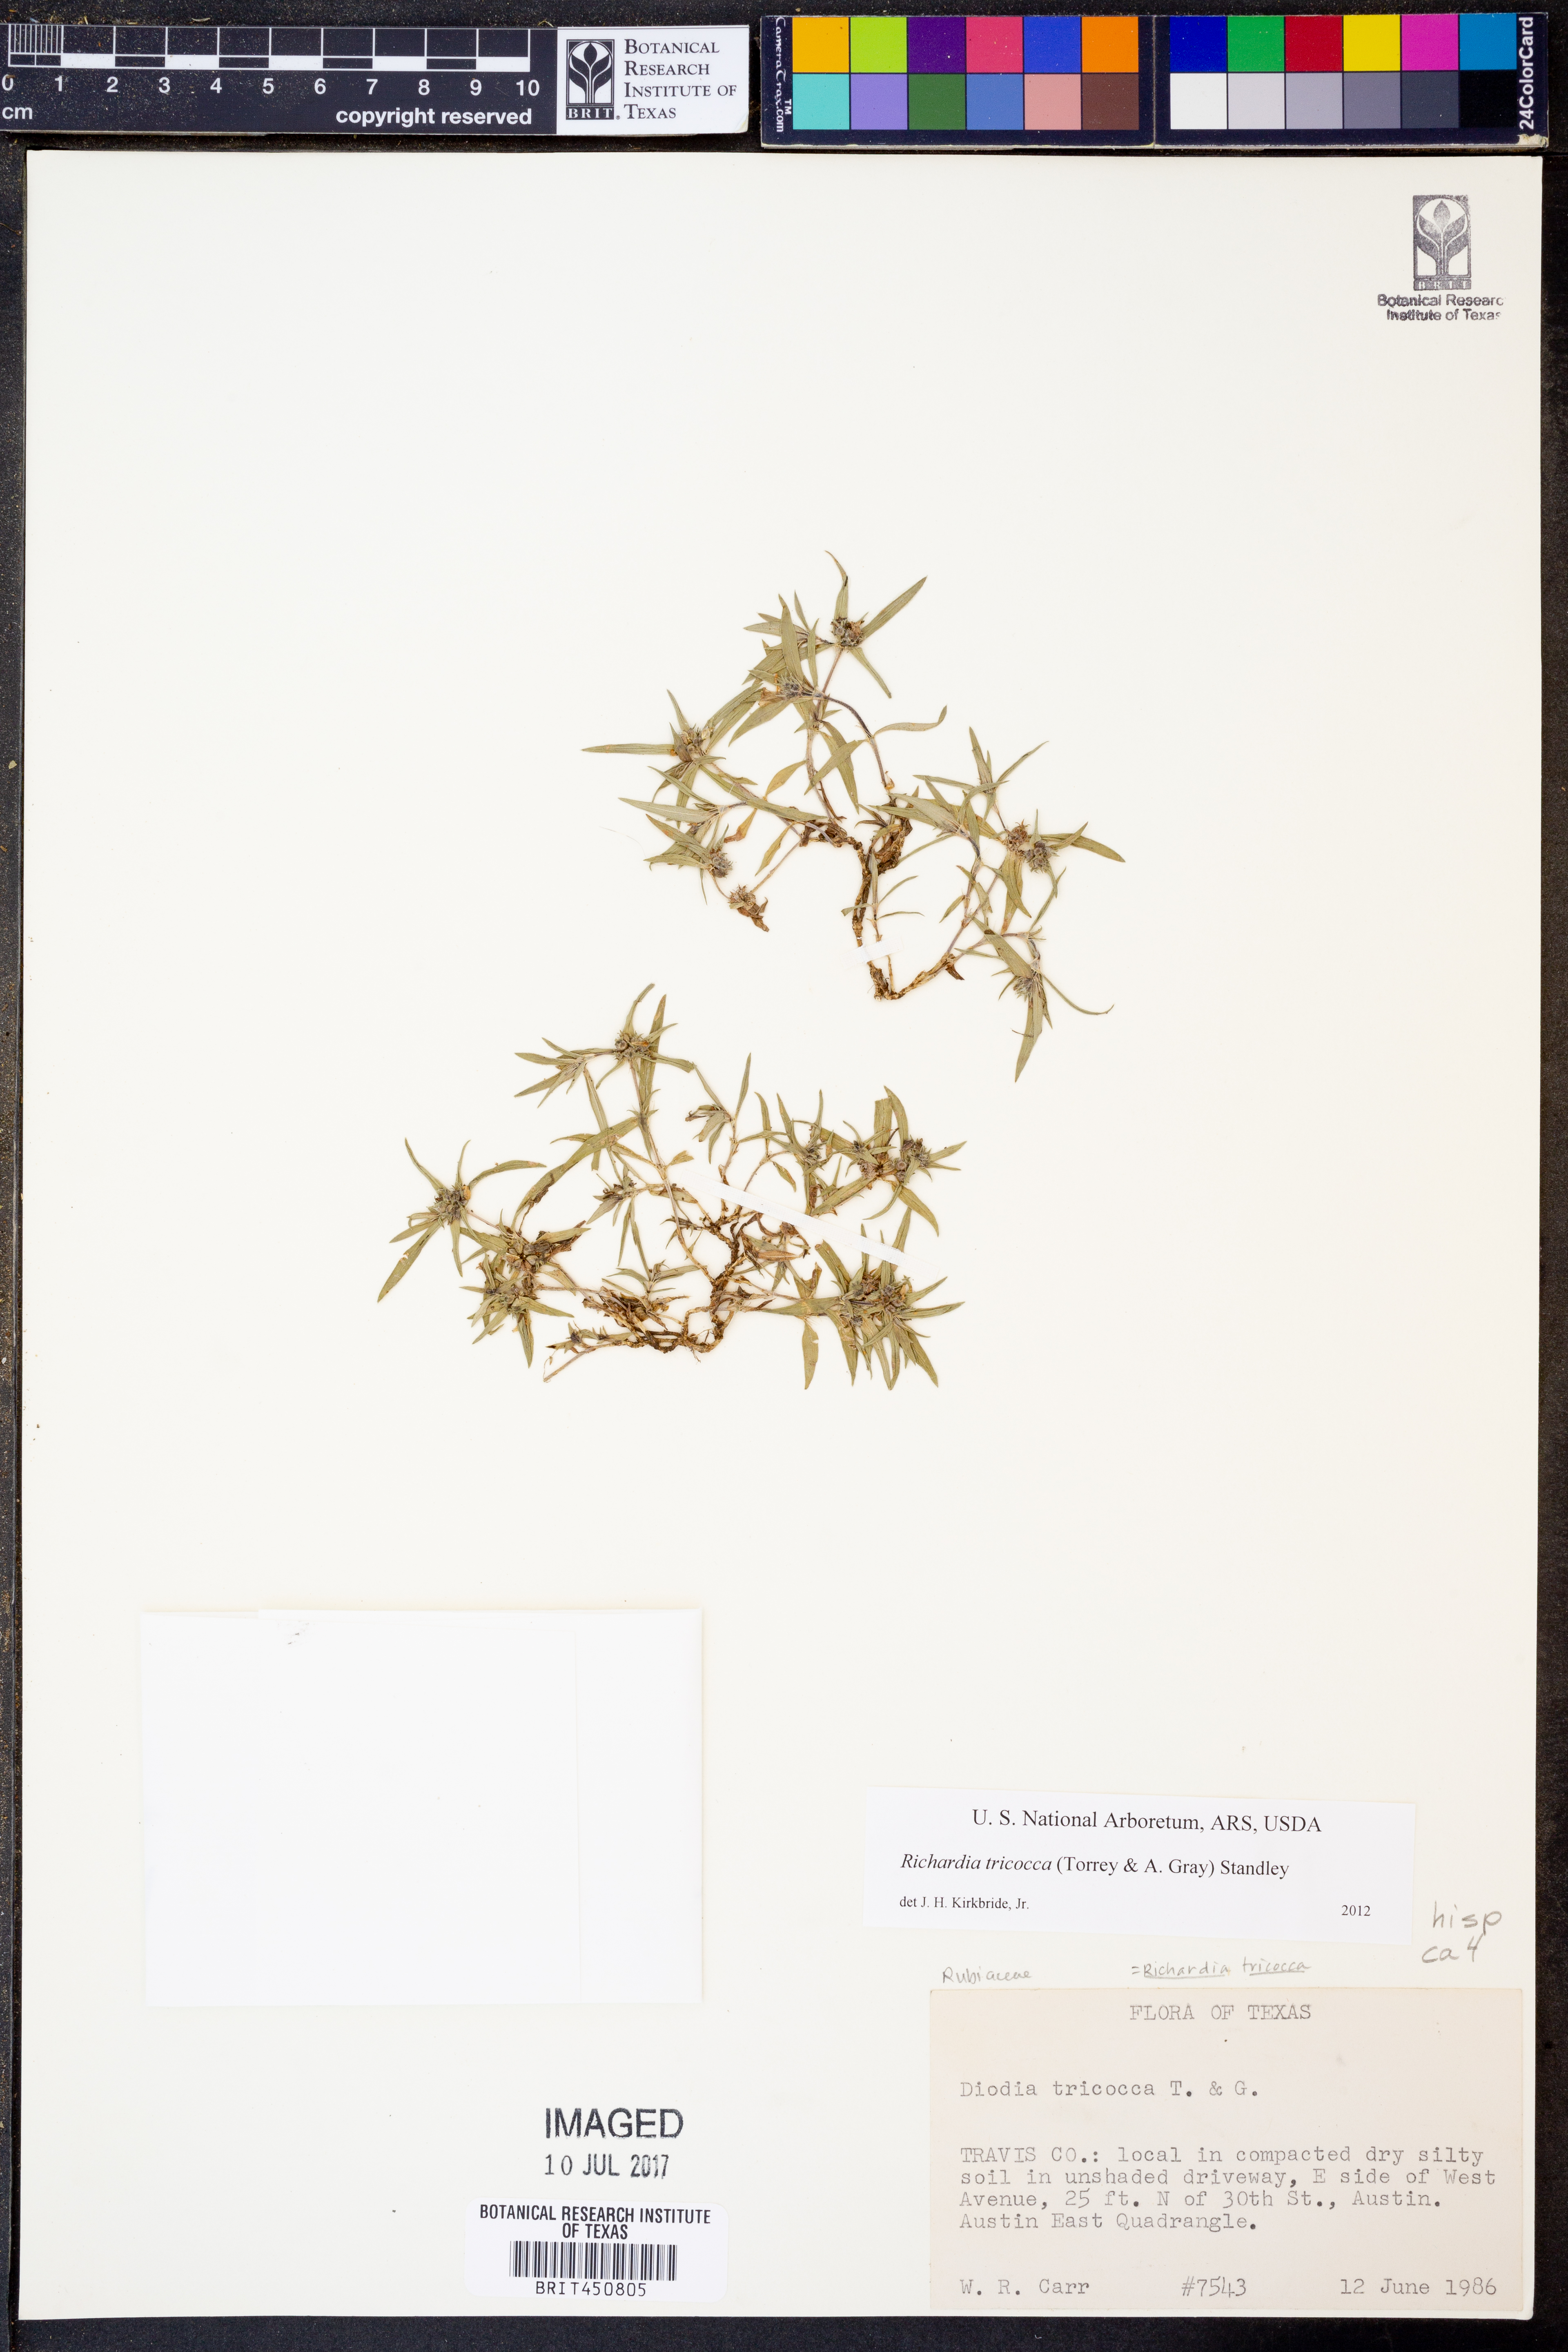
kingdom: Plantae
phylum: Tracheophyta
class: Magnoliopsida
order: Gentianales
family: Rubiaceae
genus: Richardia
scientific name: Richardia tricocca
